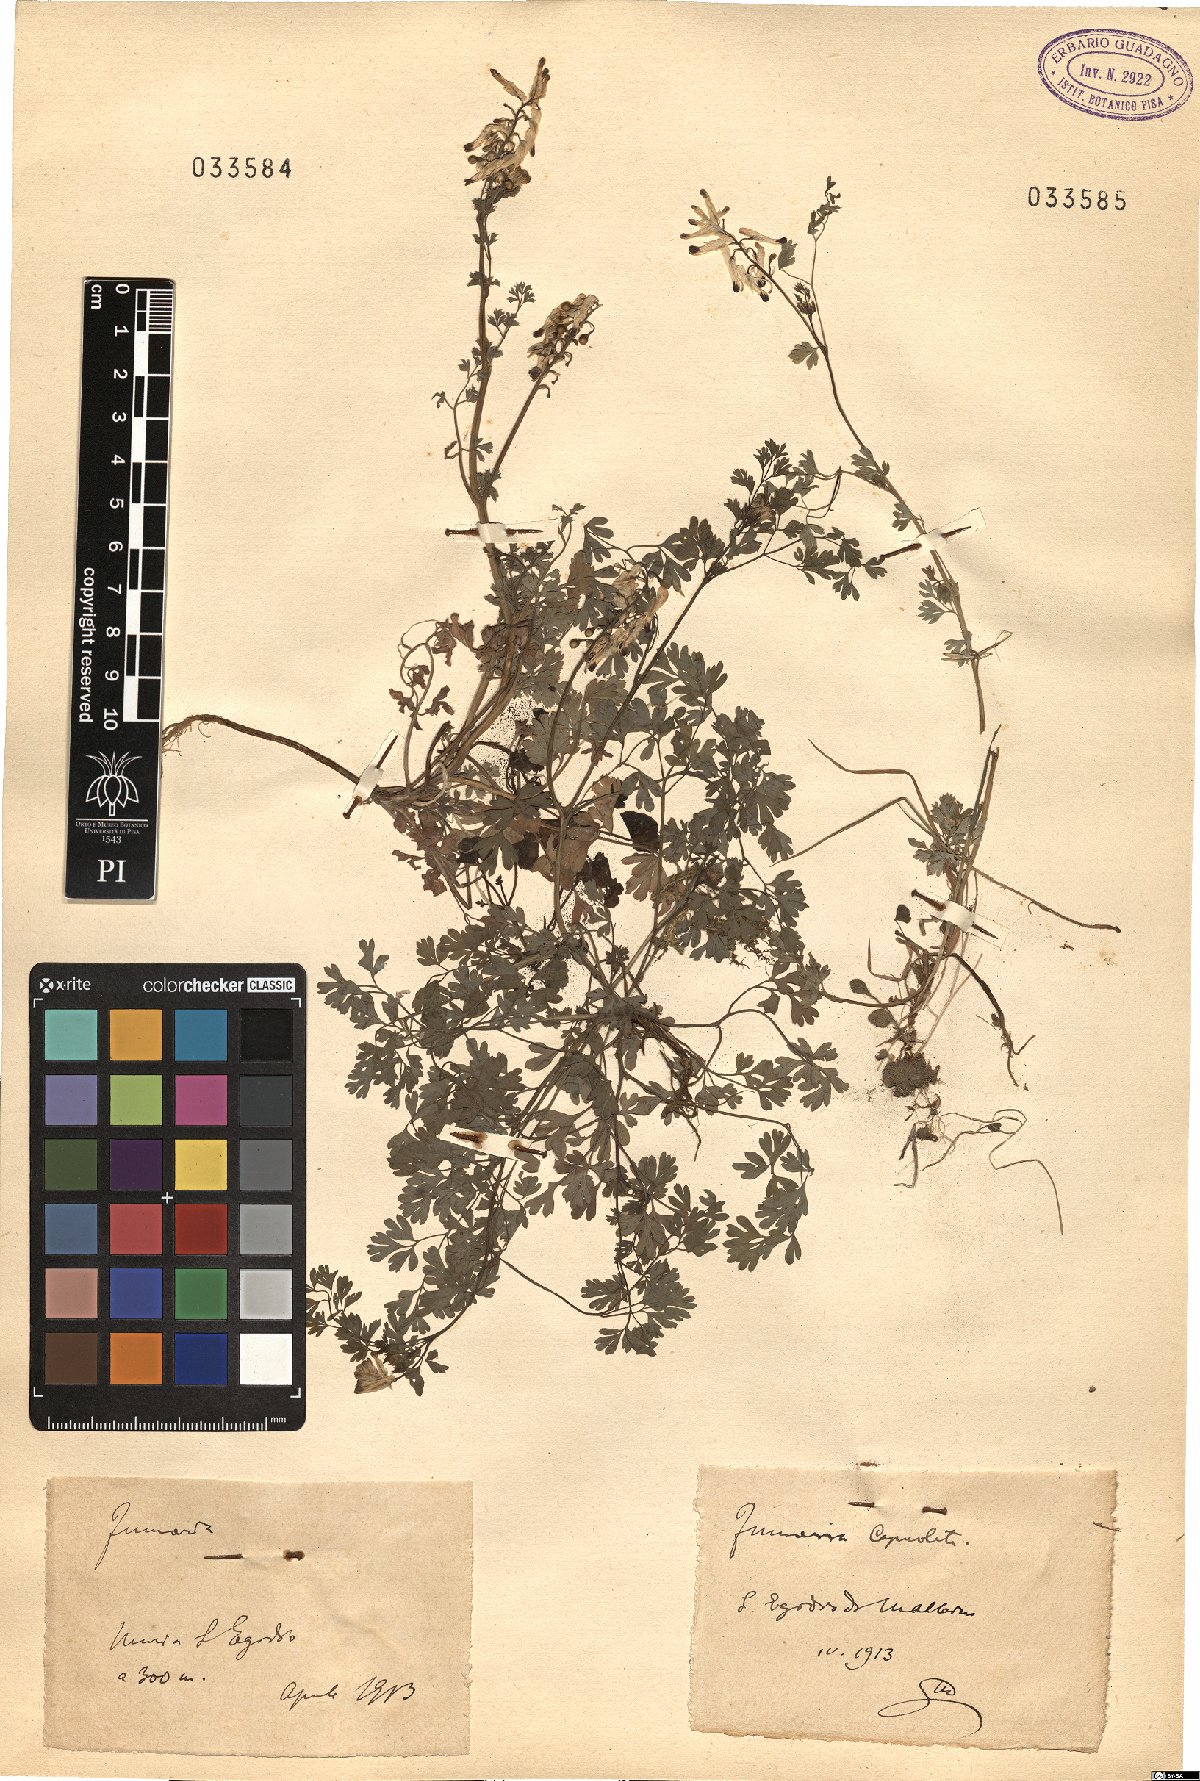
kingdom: Plantae
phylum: Tracheophyta
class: Magnoliopsida
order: Ranunculales
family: Papaveraceae
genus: Fumaria
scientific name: Fumaria
